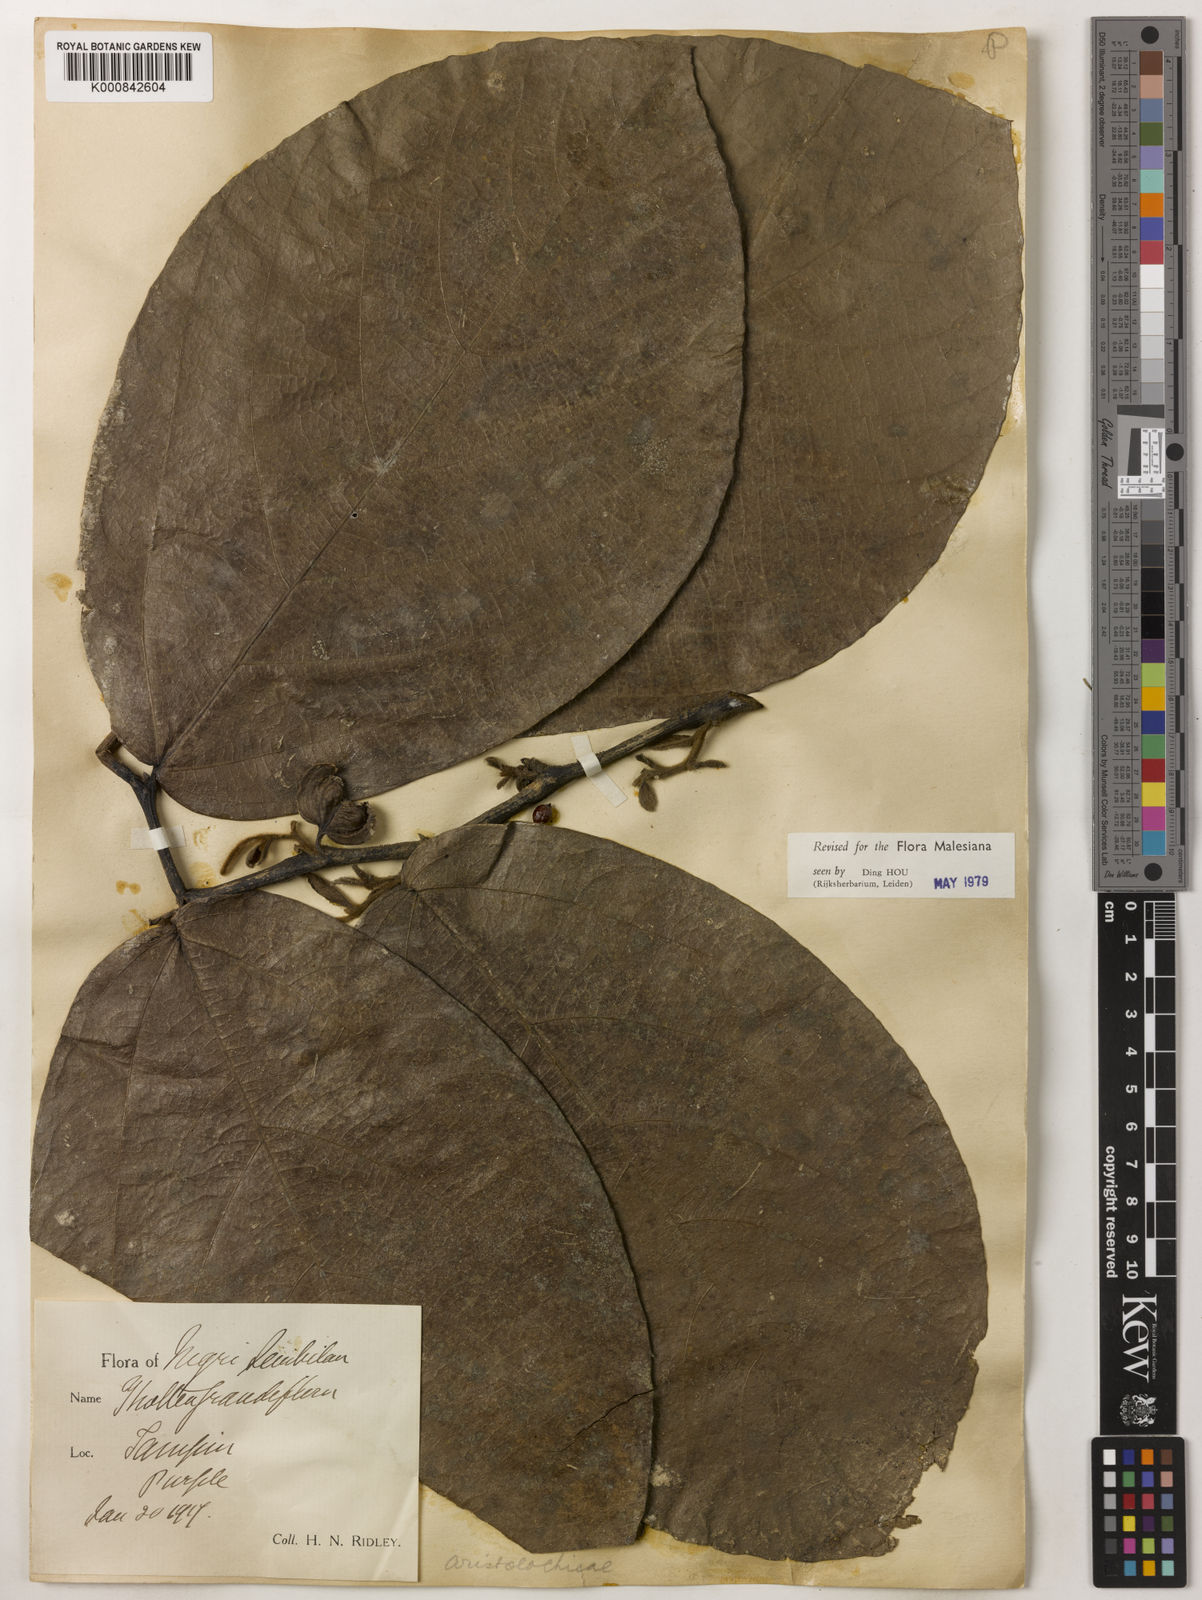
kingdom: Plantae
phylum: Tracheophyta
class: Magnoliopsida
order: Piperales
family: Aristolochiaceae
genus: Thottea
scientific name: Thottea grandiflora
